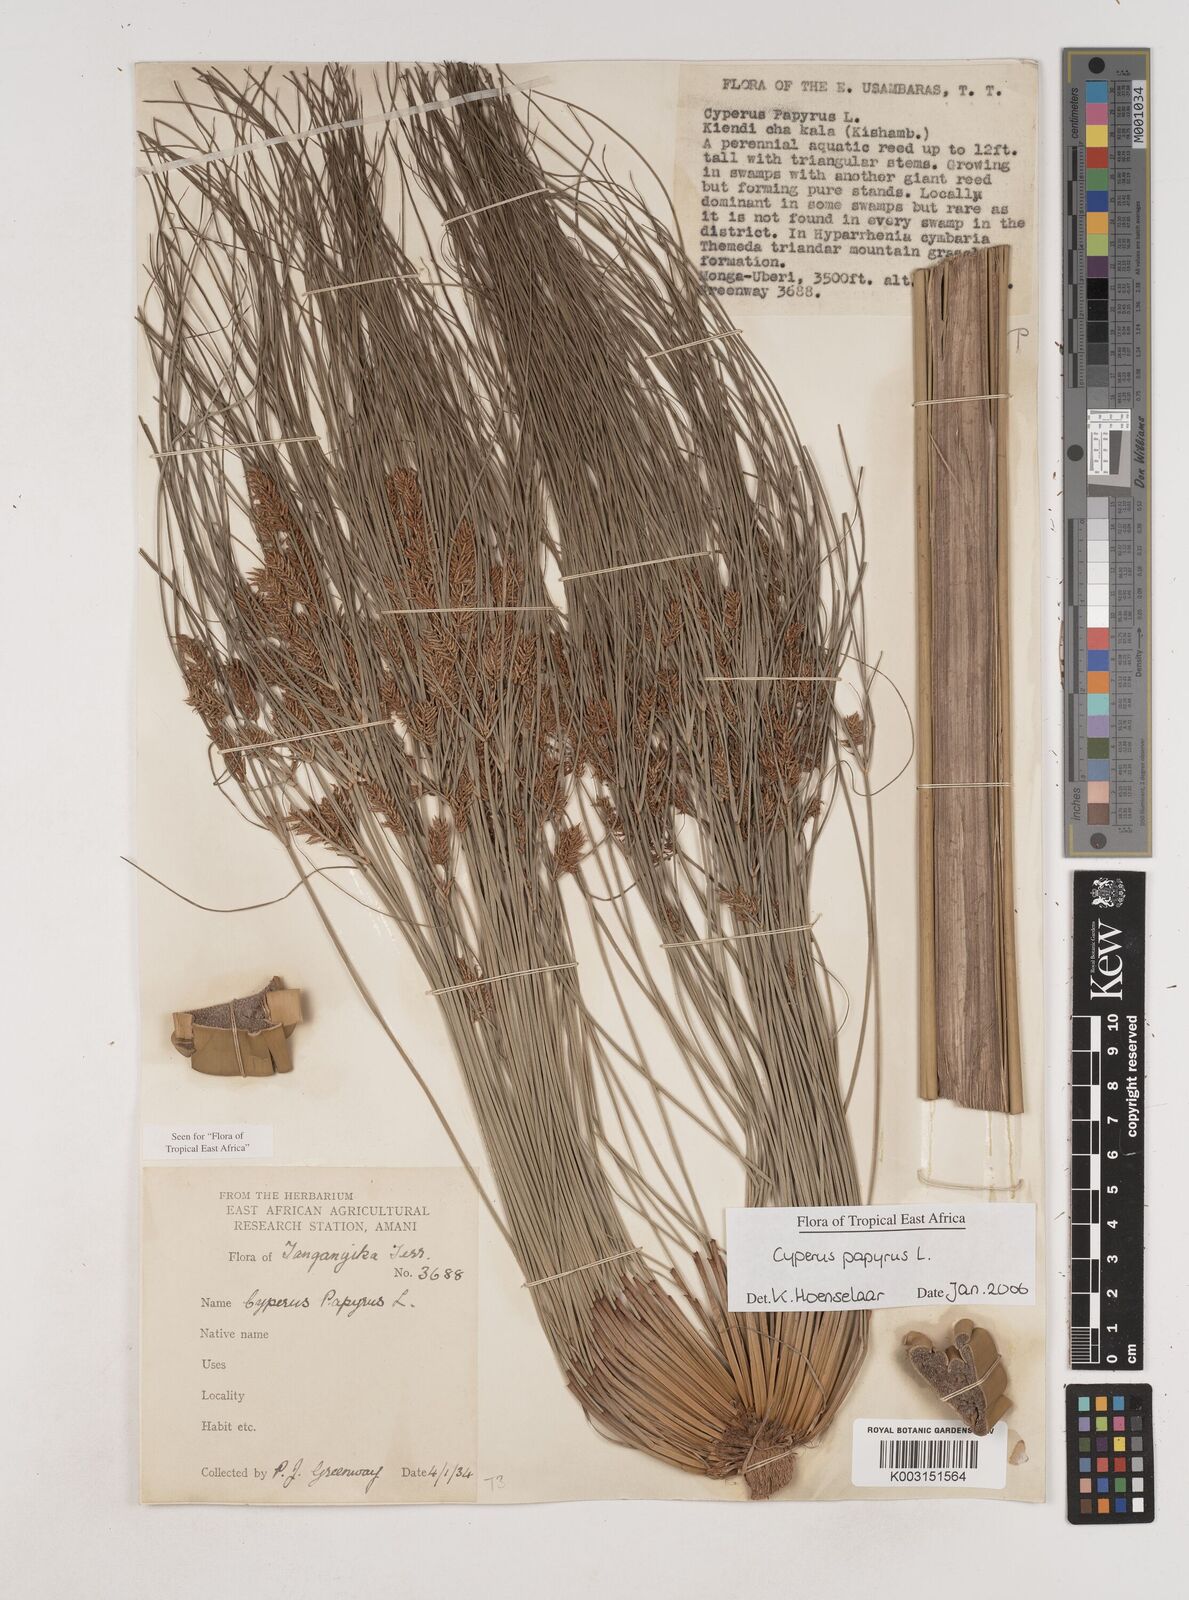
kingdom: Plantae
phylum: Tracheophyta
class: Liliopsida
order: Poales
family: Cyperaceae
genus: Cyperus
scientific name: Cyperus papyrus
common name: Papyrus
